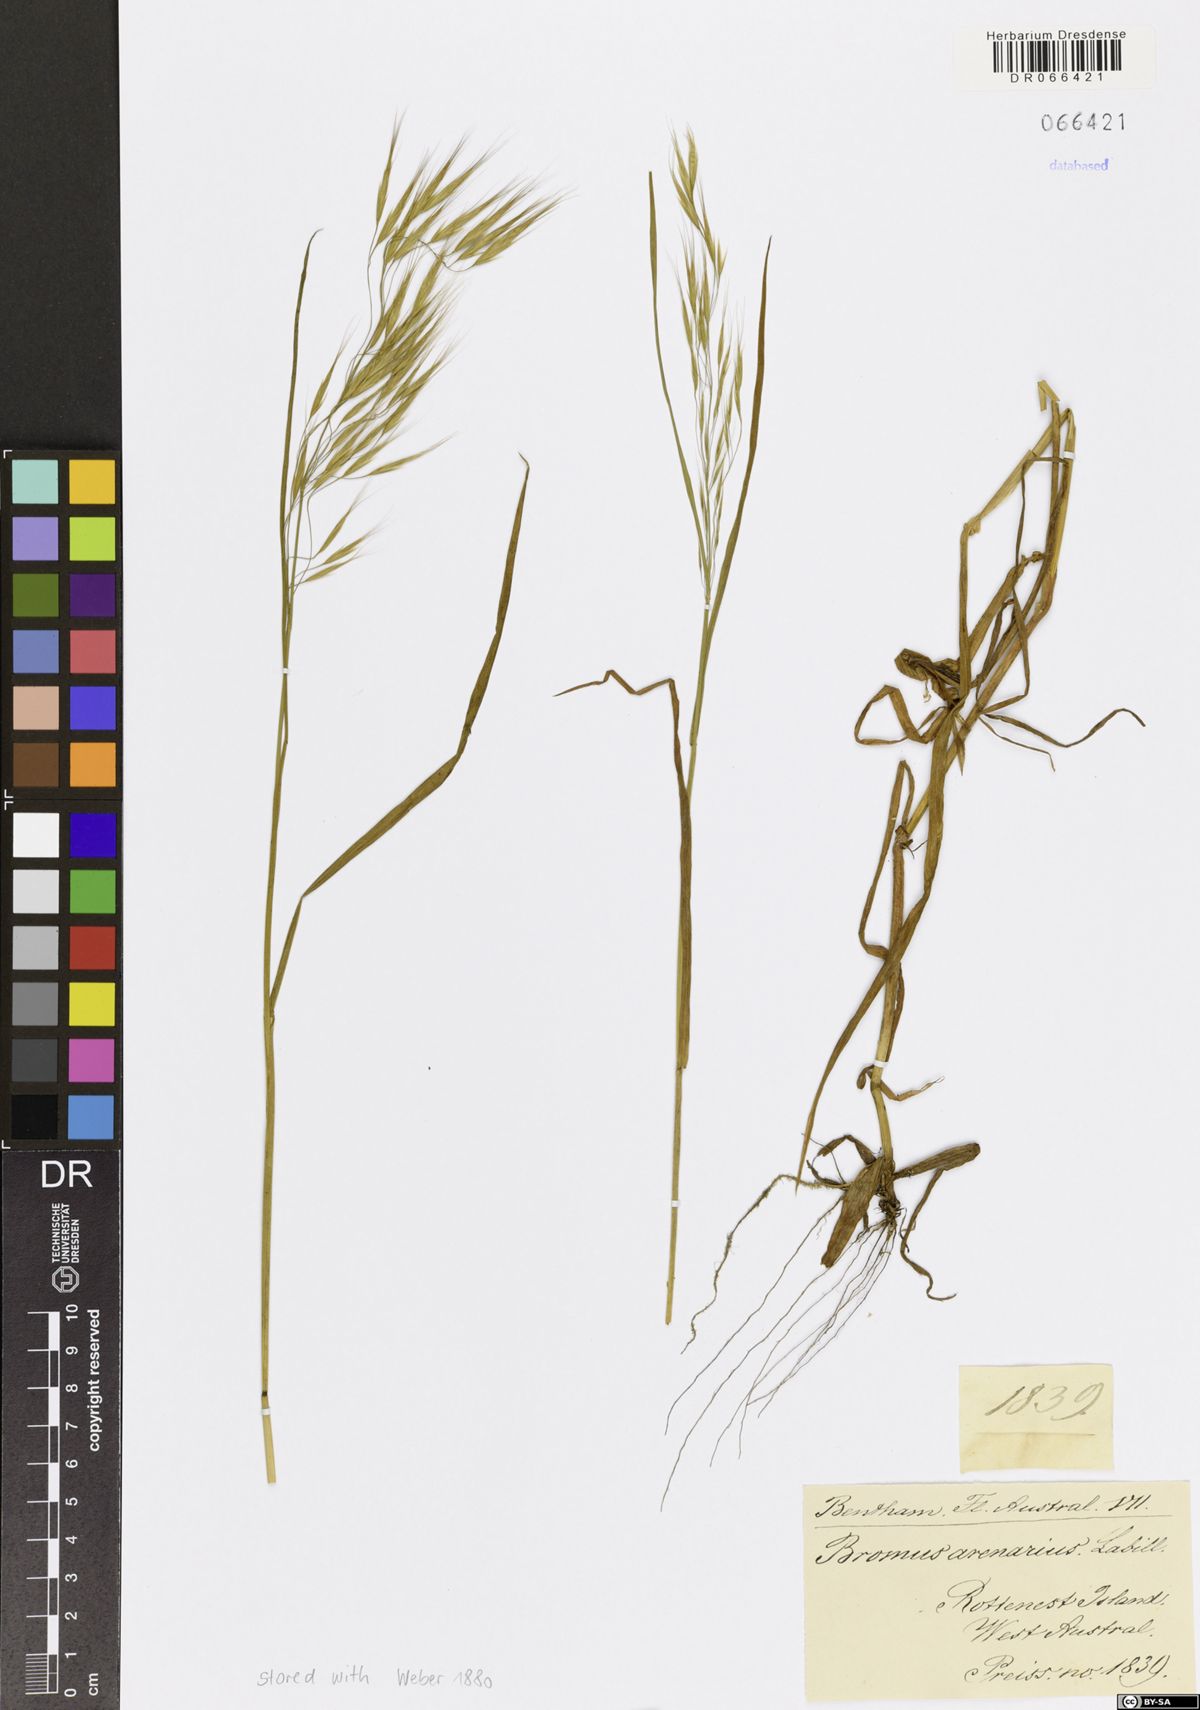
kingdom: Plantae
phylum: Tracheophyta
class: Liliopsida
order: Poales
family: Poaceae
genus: Bromus
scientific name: Bromus arenarius
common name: Australian brome
